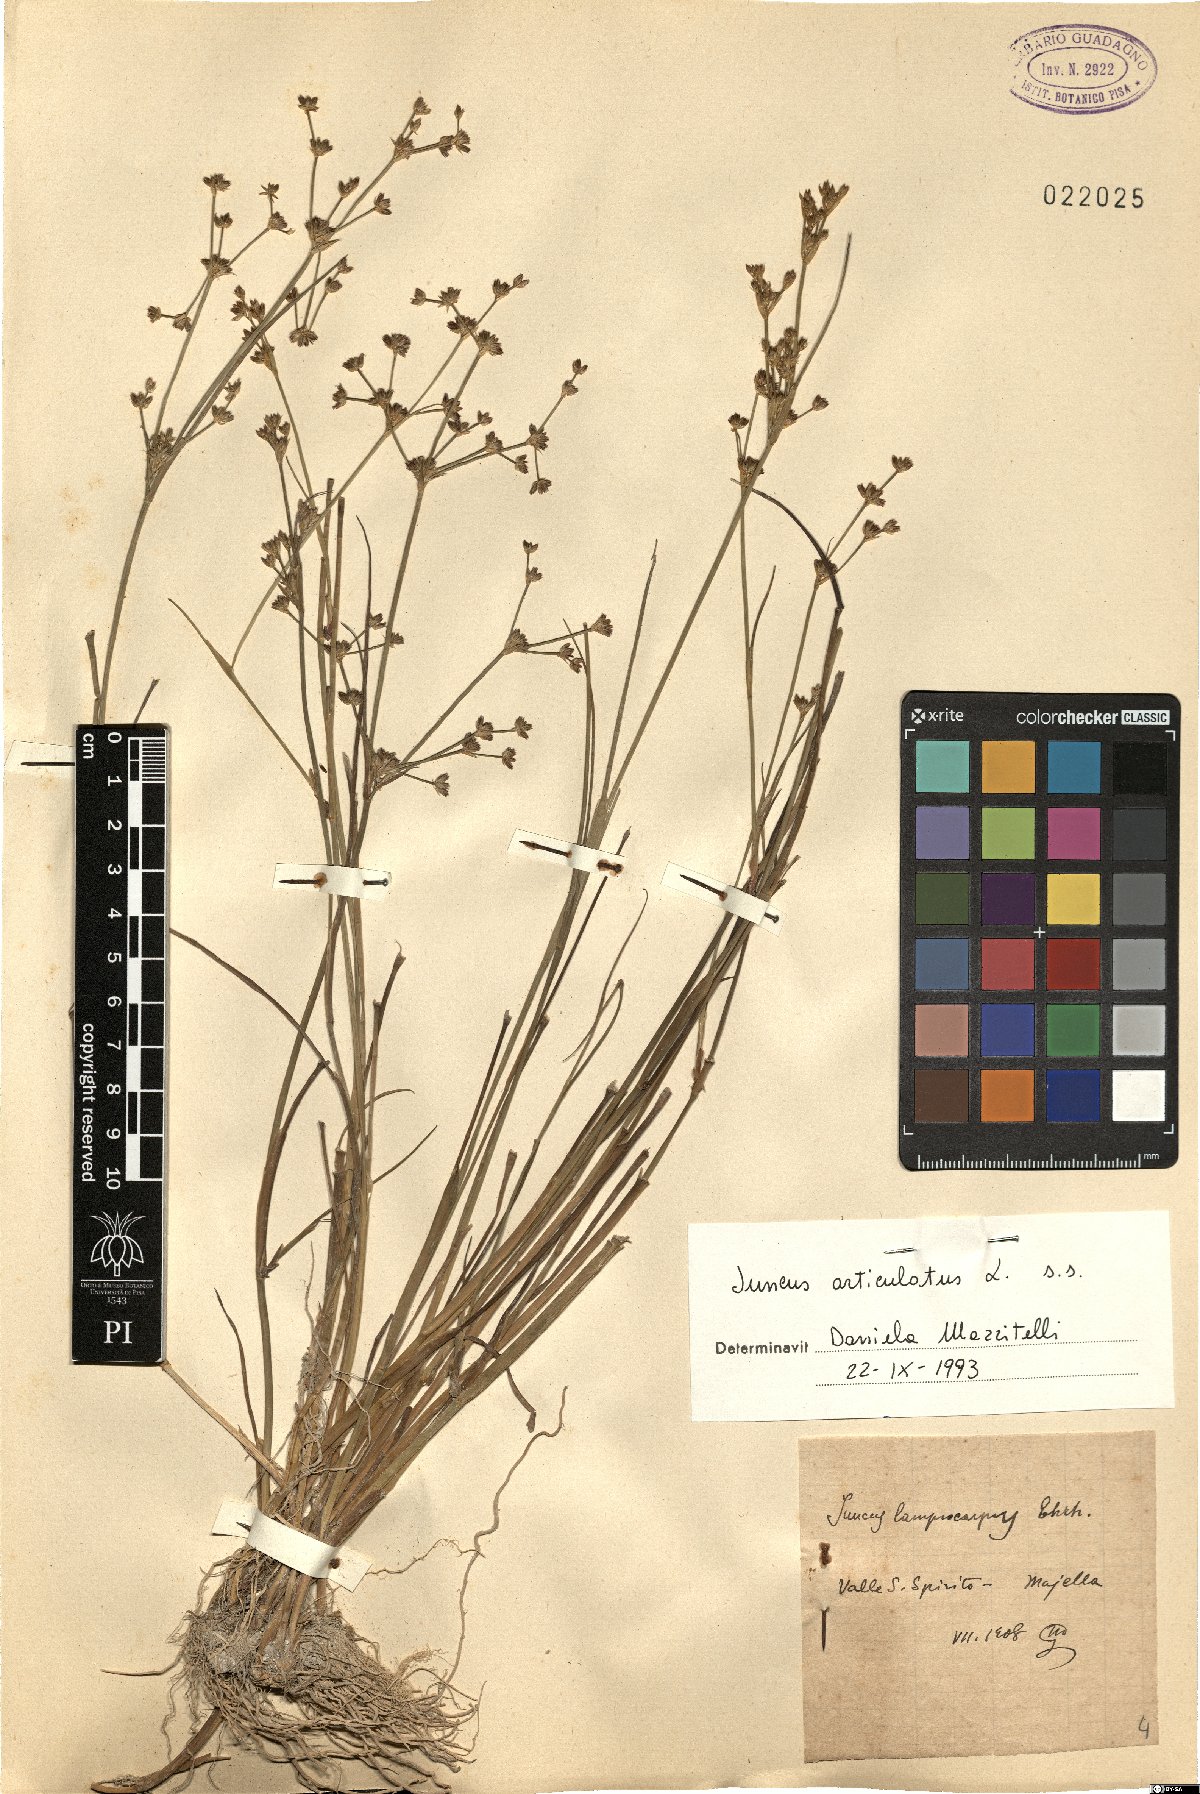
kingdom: Plantae
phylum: Tracheophyta
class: Liliopsida
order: Poales
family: Juncaceae
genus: Juncus
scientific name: Juncus articulatus
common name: Jointed rush
